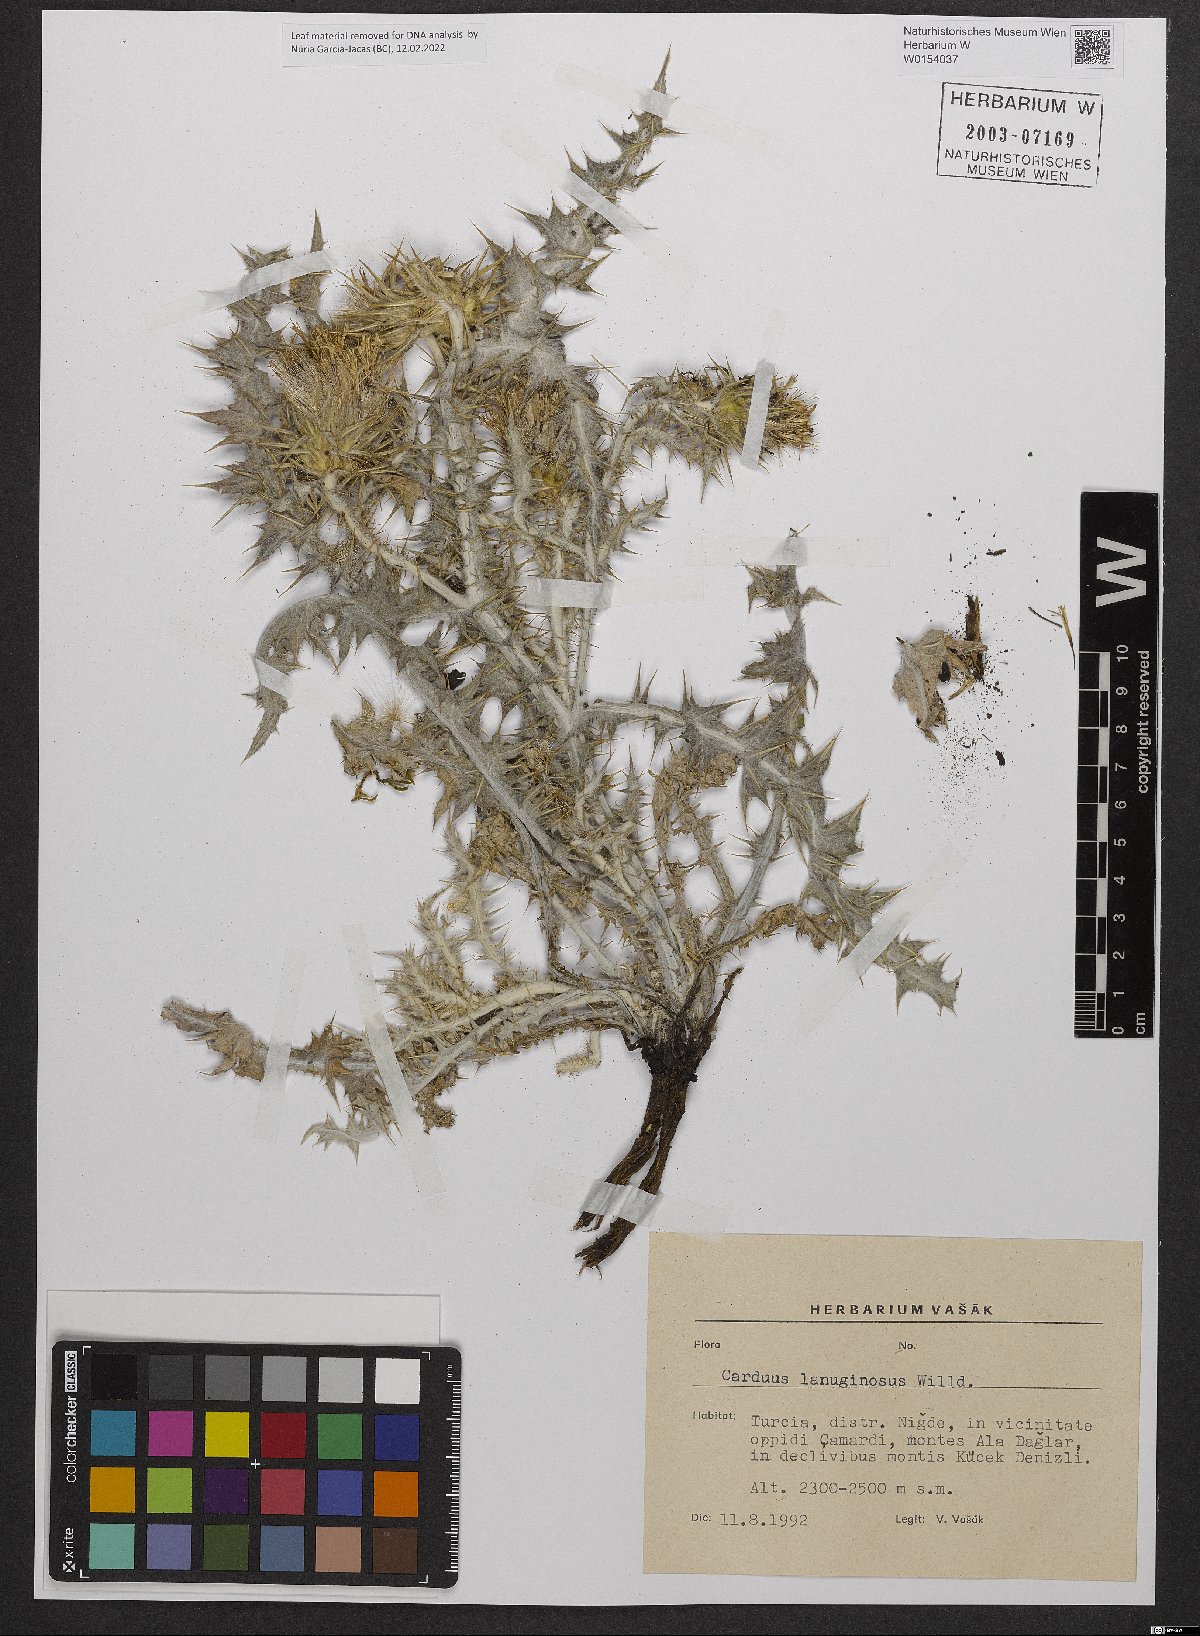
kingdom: Plantae
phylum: Tracheophyta
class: Magnoliopsida
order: Asterales
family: Asteraceae
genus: Carduus
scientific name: Carduus lanuginosus
